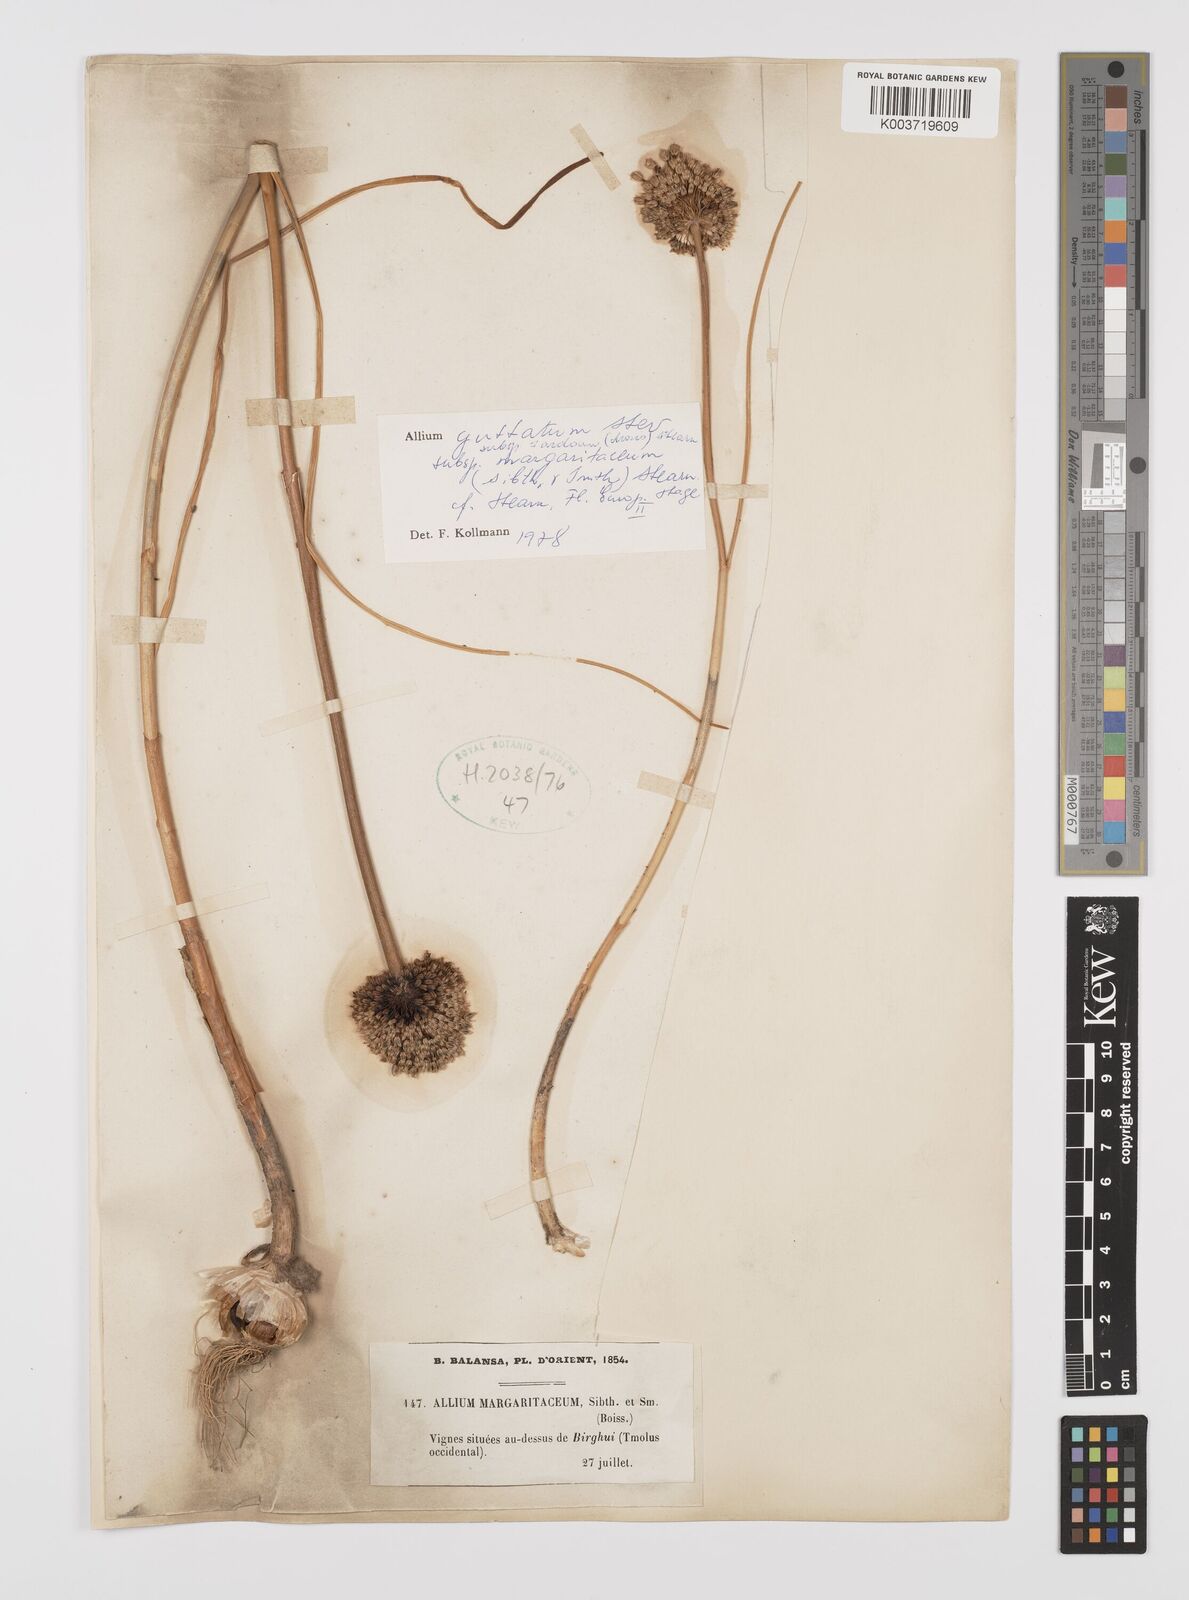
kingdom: Plantae
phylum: Tracheophyta
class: Liliopsida
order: Asparagales
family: Amaryllidaceae
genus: Allium
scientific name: Allium guttatum
